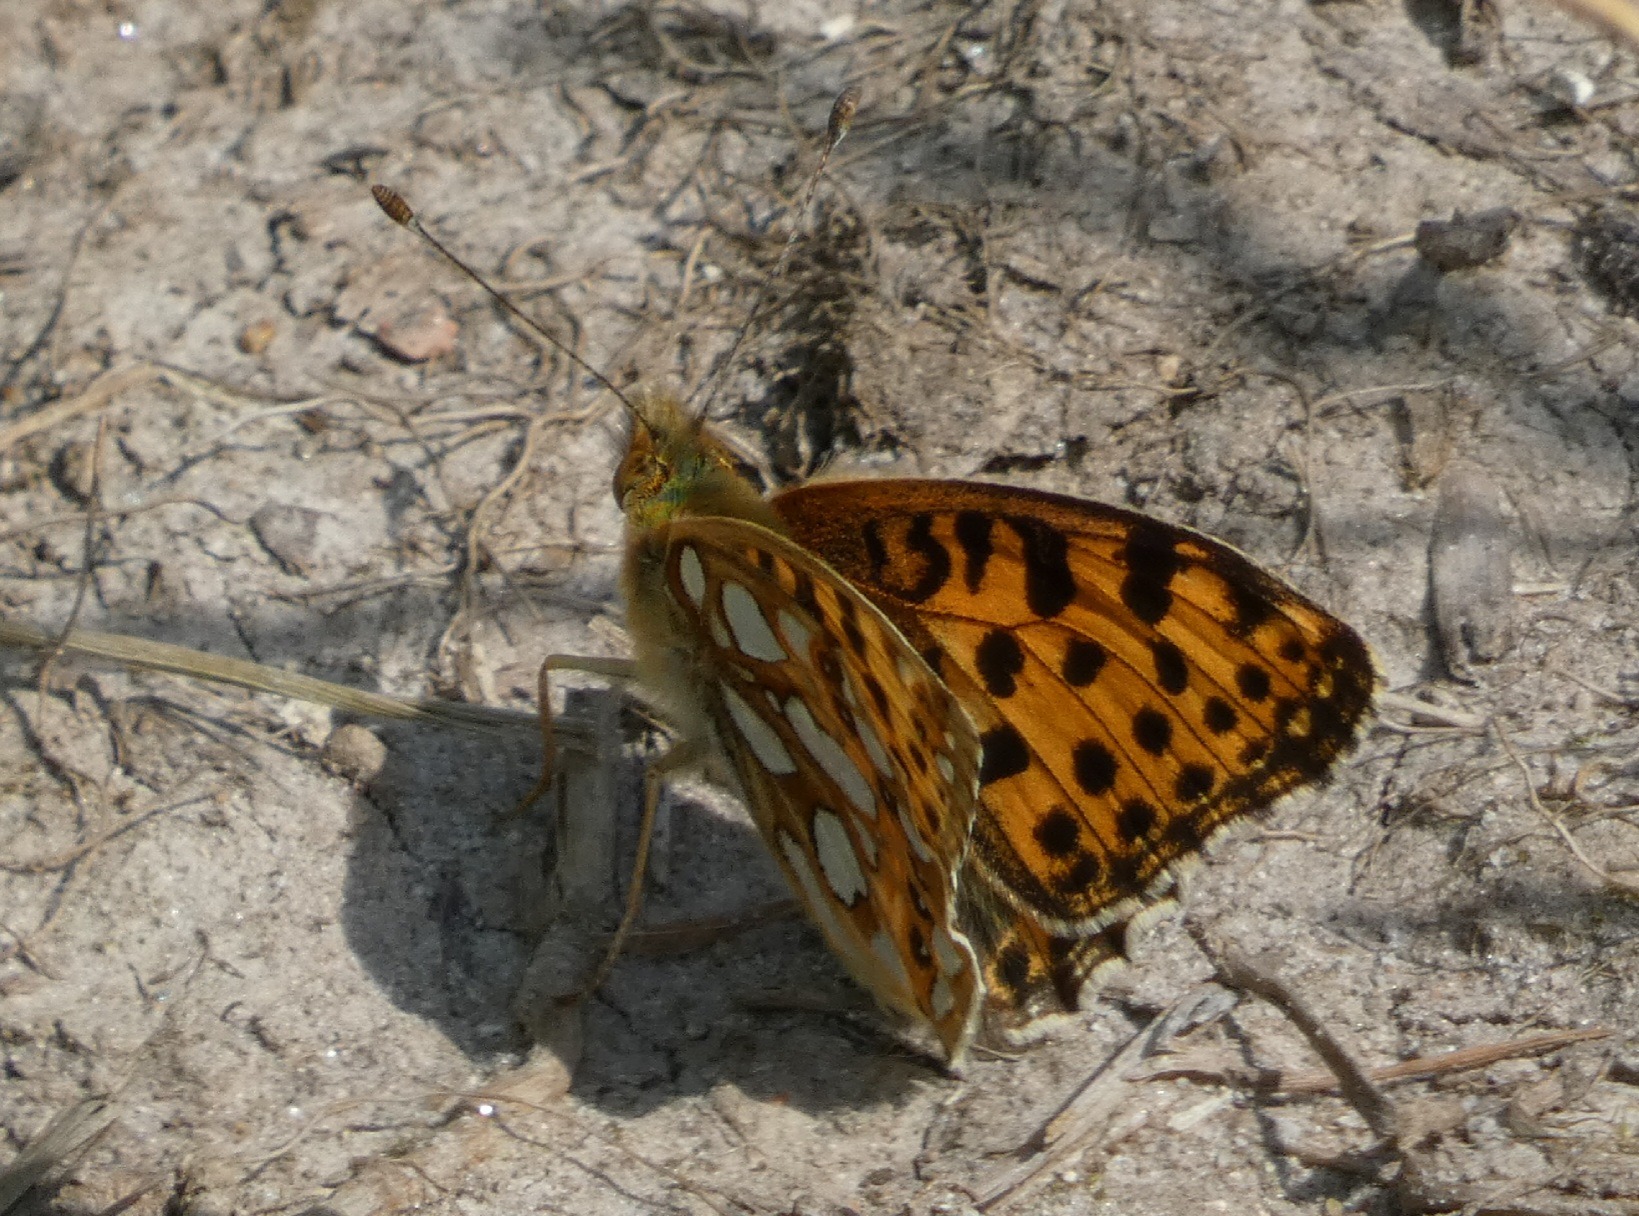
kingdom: Animalia
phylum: Arthropoda
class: Insecta
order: Lepidoptera
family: Nymphalidae
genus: Issoria
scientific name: Issoria lathonia
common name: Storplettet perlemorsommerfugl
